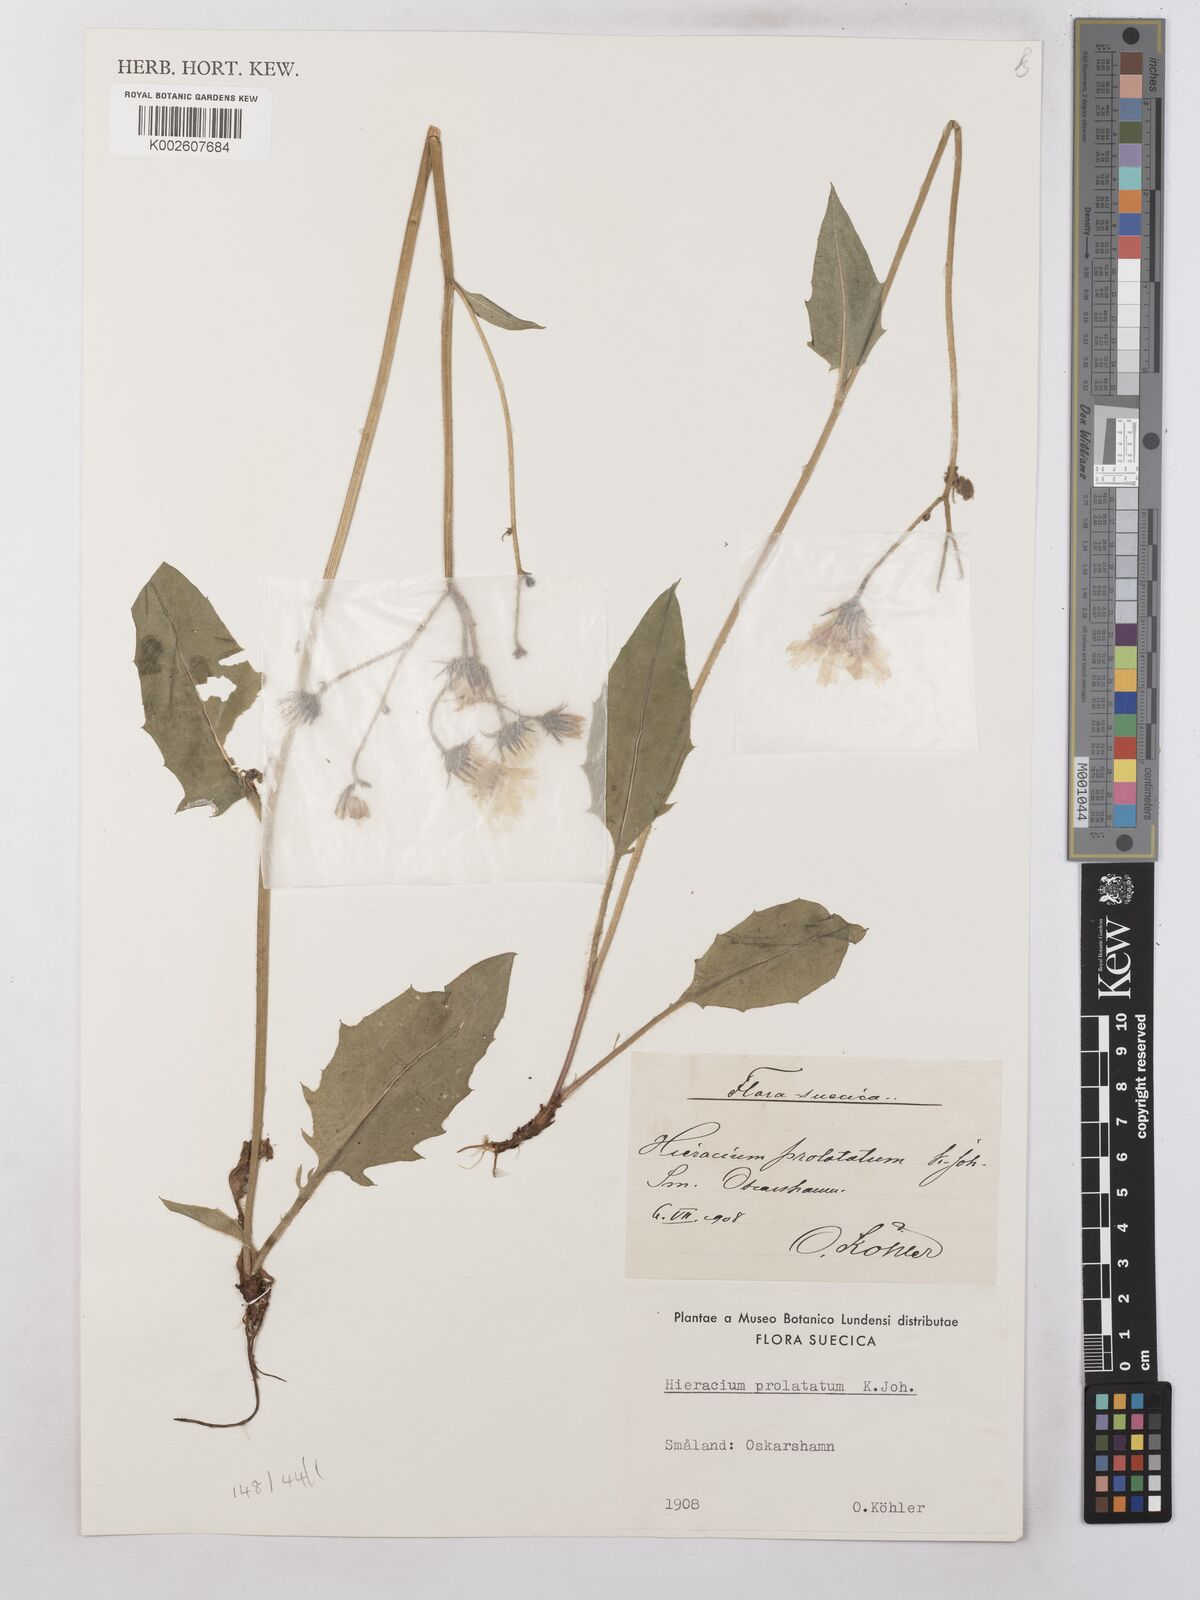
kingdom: Plantae
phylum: Tracheophyta
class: Magnoliopsida
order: Asterales
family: Asteraceae
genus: Hieracium
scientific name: Hieracium subramosum
